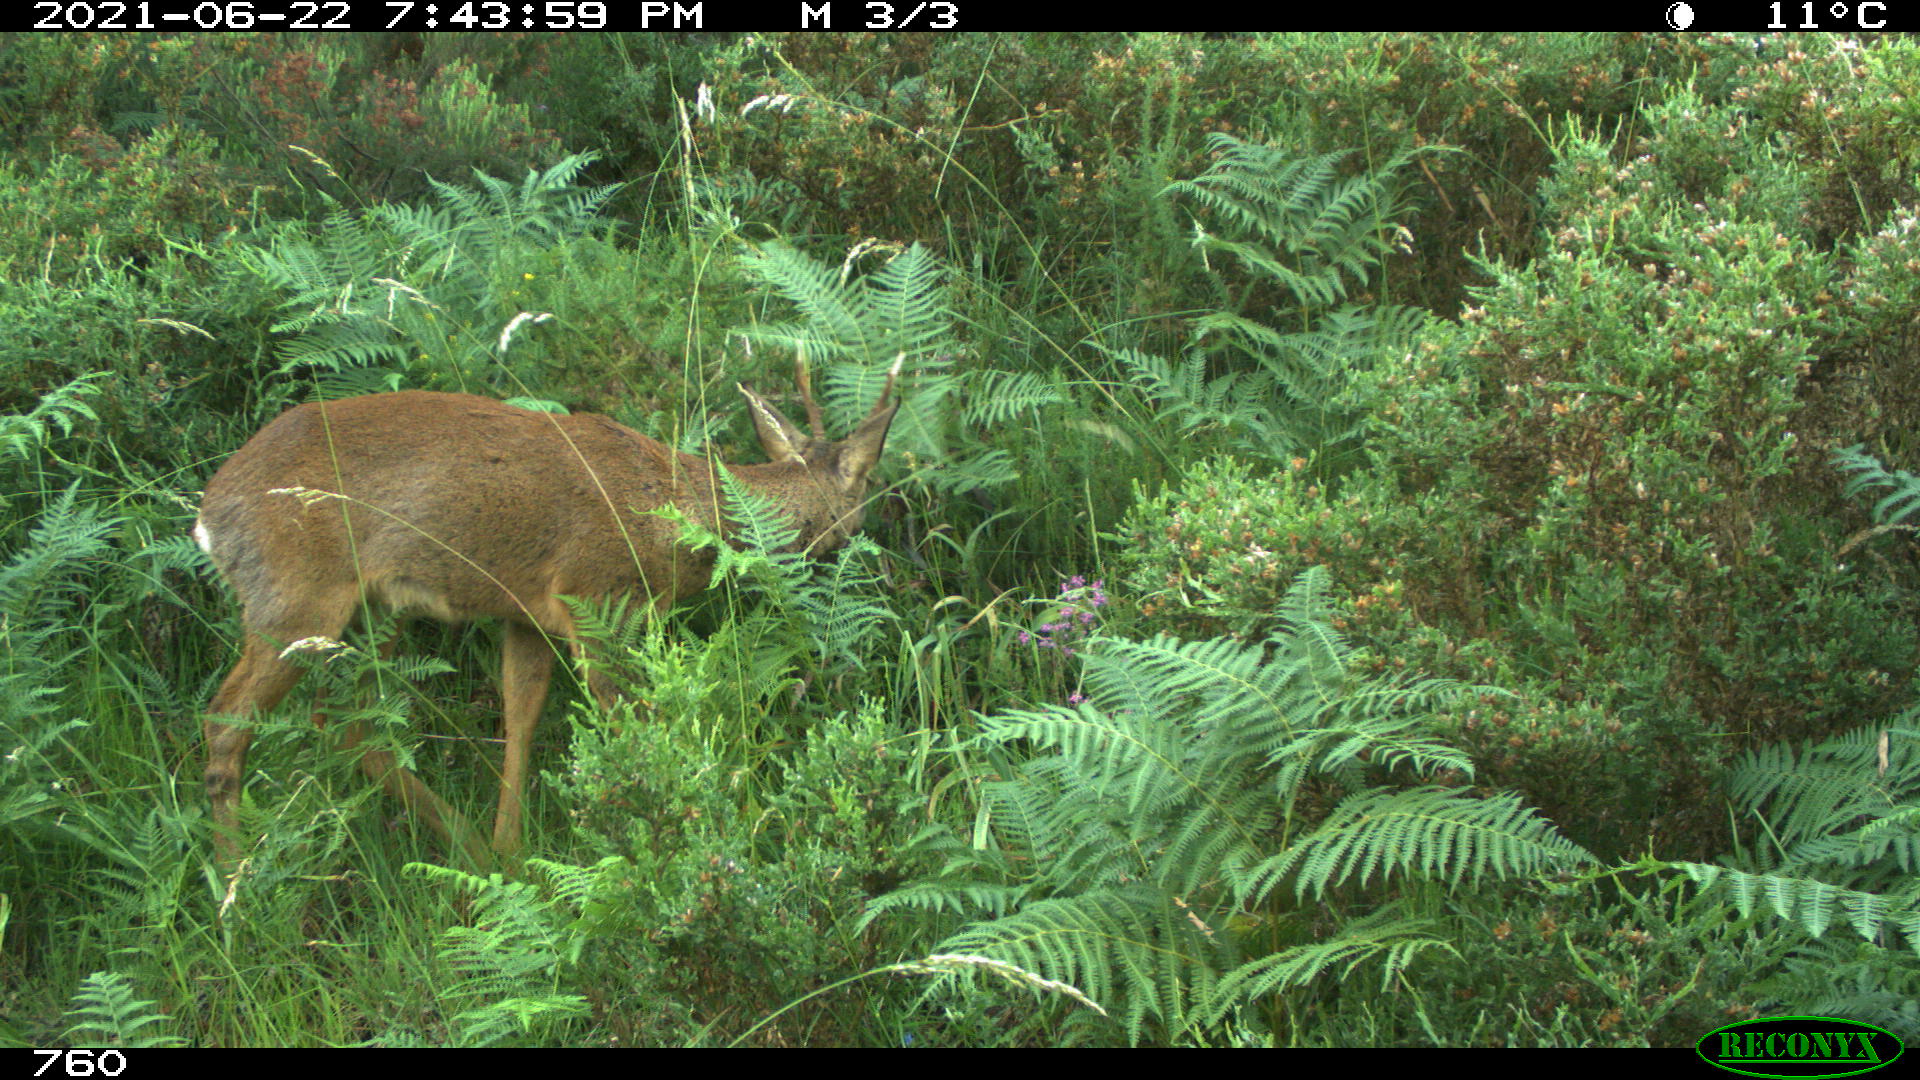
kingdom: Animalia
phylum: Chordata
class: Mammalia
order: Artiodactyla
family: Cervidae
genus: Capreolus
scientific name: Capreolus capreolus
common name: Western roe deer
